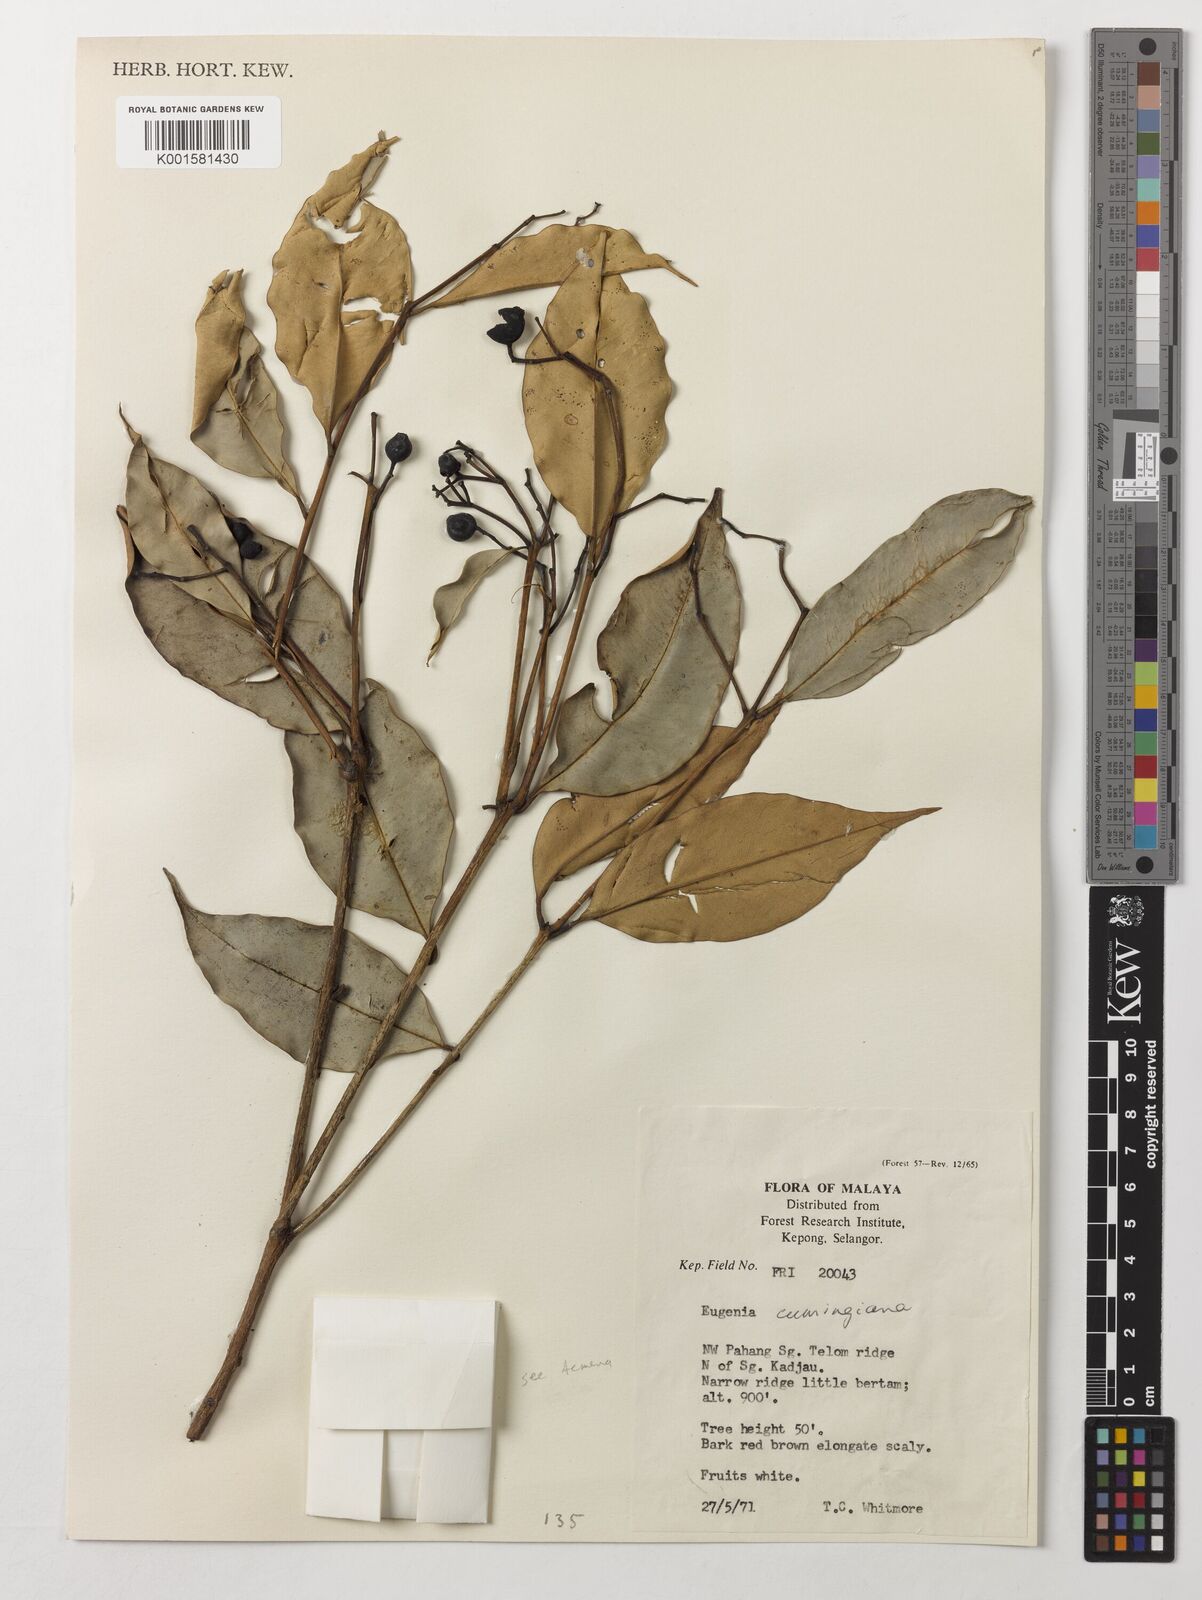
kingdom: Plantae
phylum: Tracheophyta
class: Magnoliopsida
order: Myrtales
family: Myrtaceae
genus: Syzygium
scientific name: Syzygium acuminatissimum
